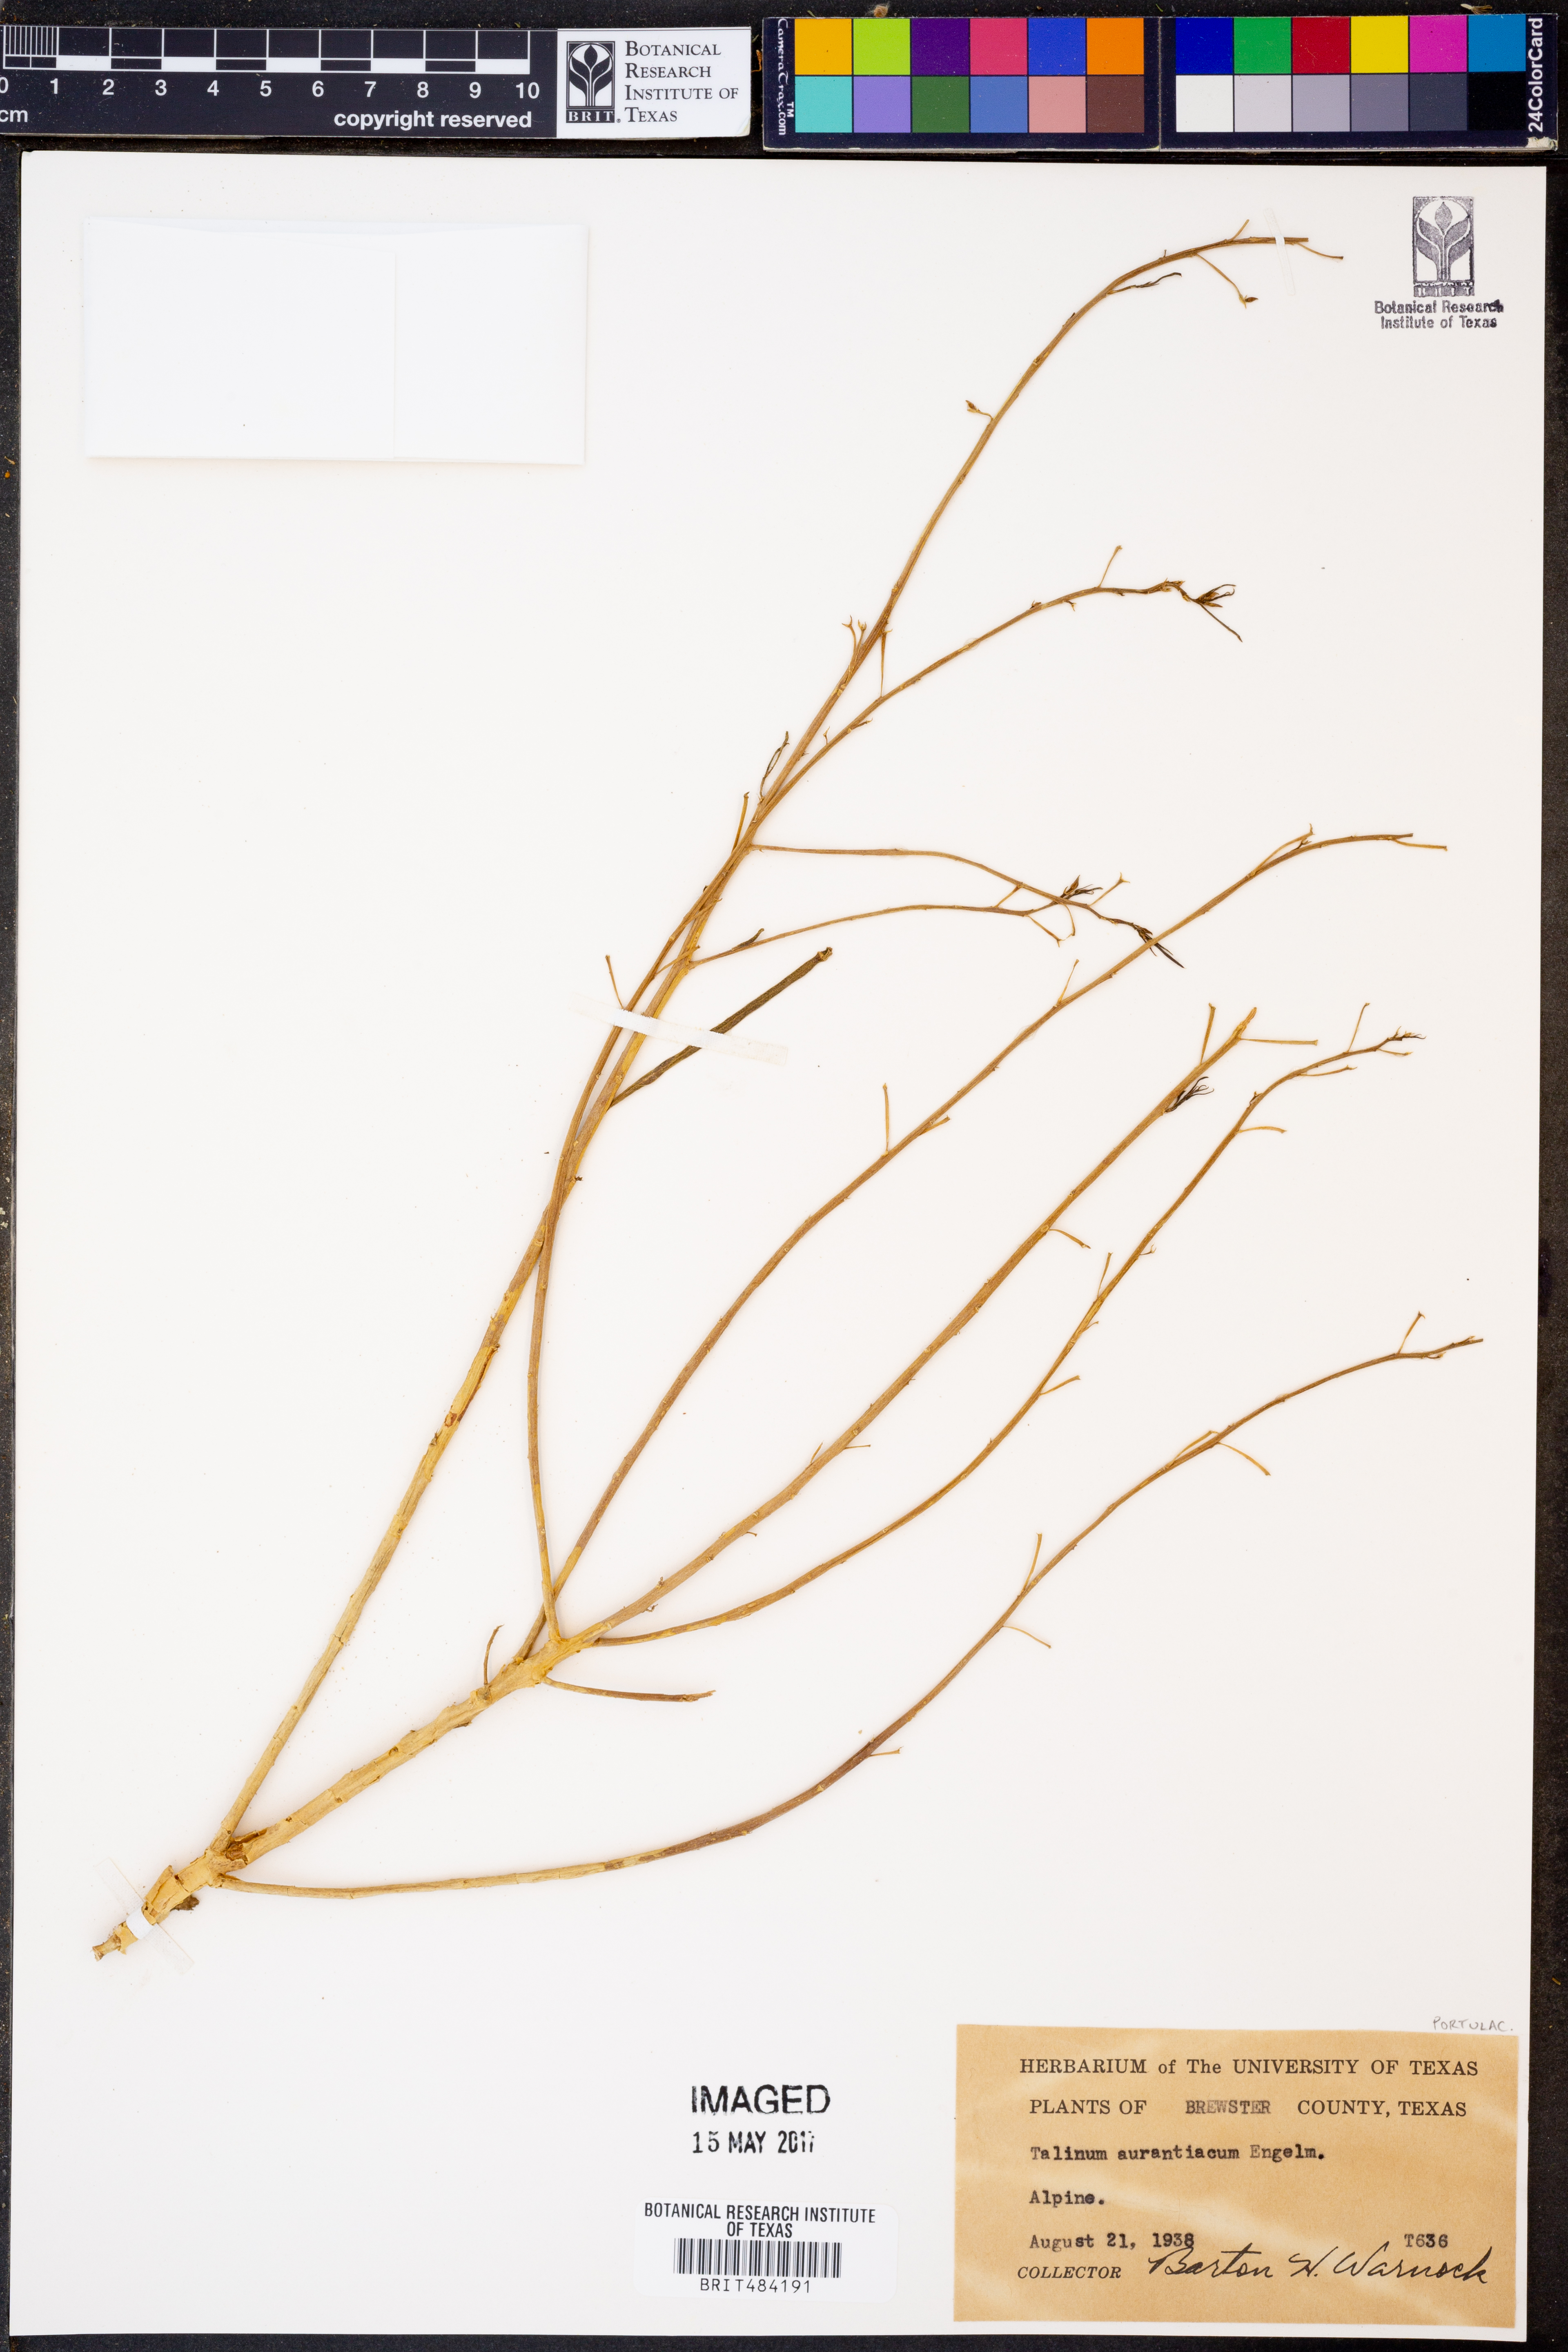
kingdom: Plantae
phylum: Tracheophyta
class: Magnoliopsida
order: Caryophyllales
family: Montiaceae
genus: Phemeranthus
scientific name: Phemeranthus aurantiacus
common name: Orange fameflower
